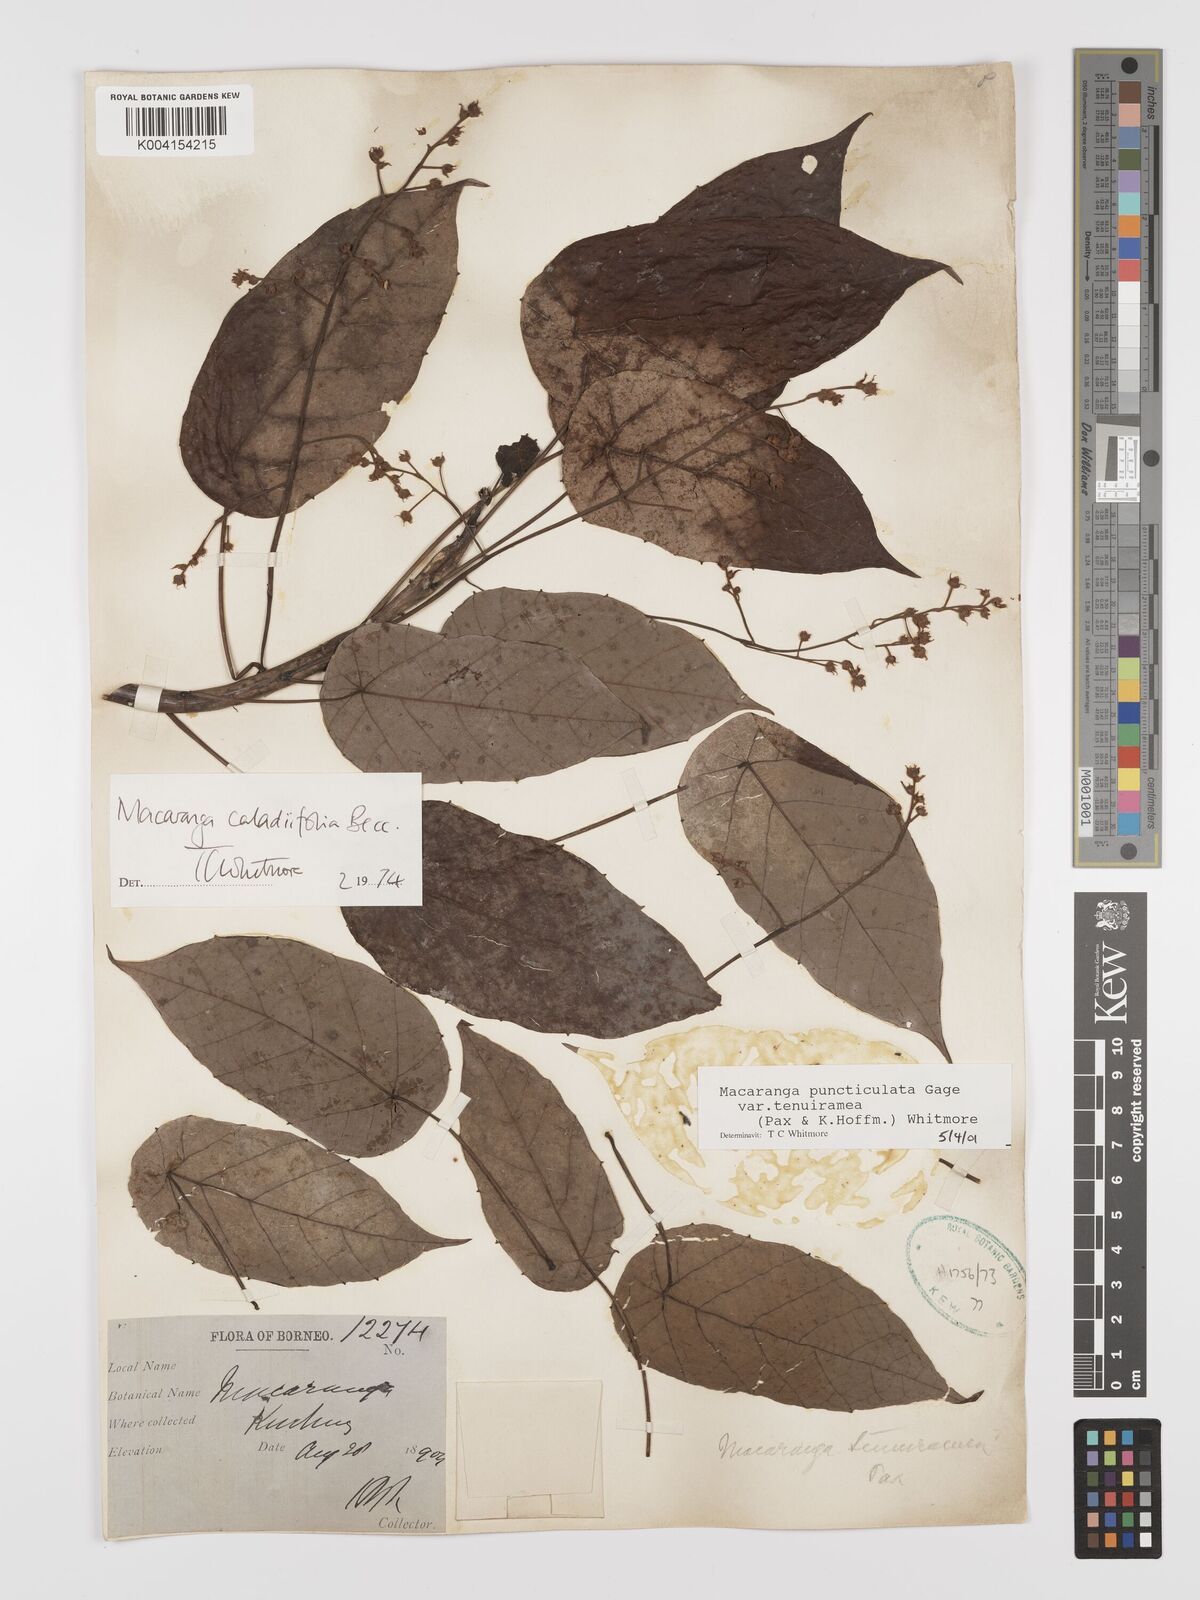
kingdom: Plantae
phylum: Tracheophyta
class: Magnoliopsida
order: Malpighiales
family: Euphorbiaceae
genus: Macaranga
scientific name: Macaranga puncticulata
